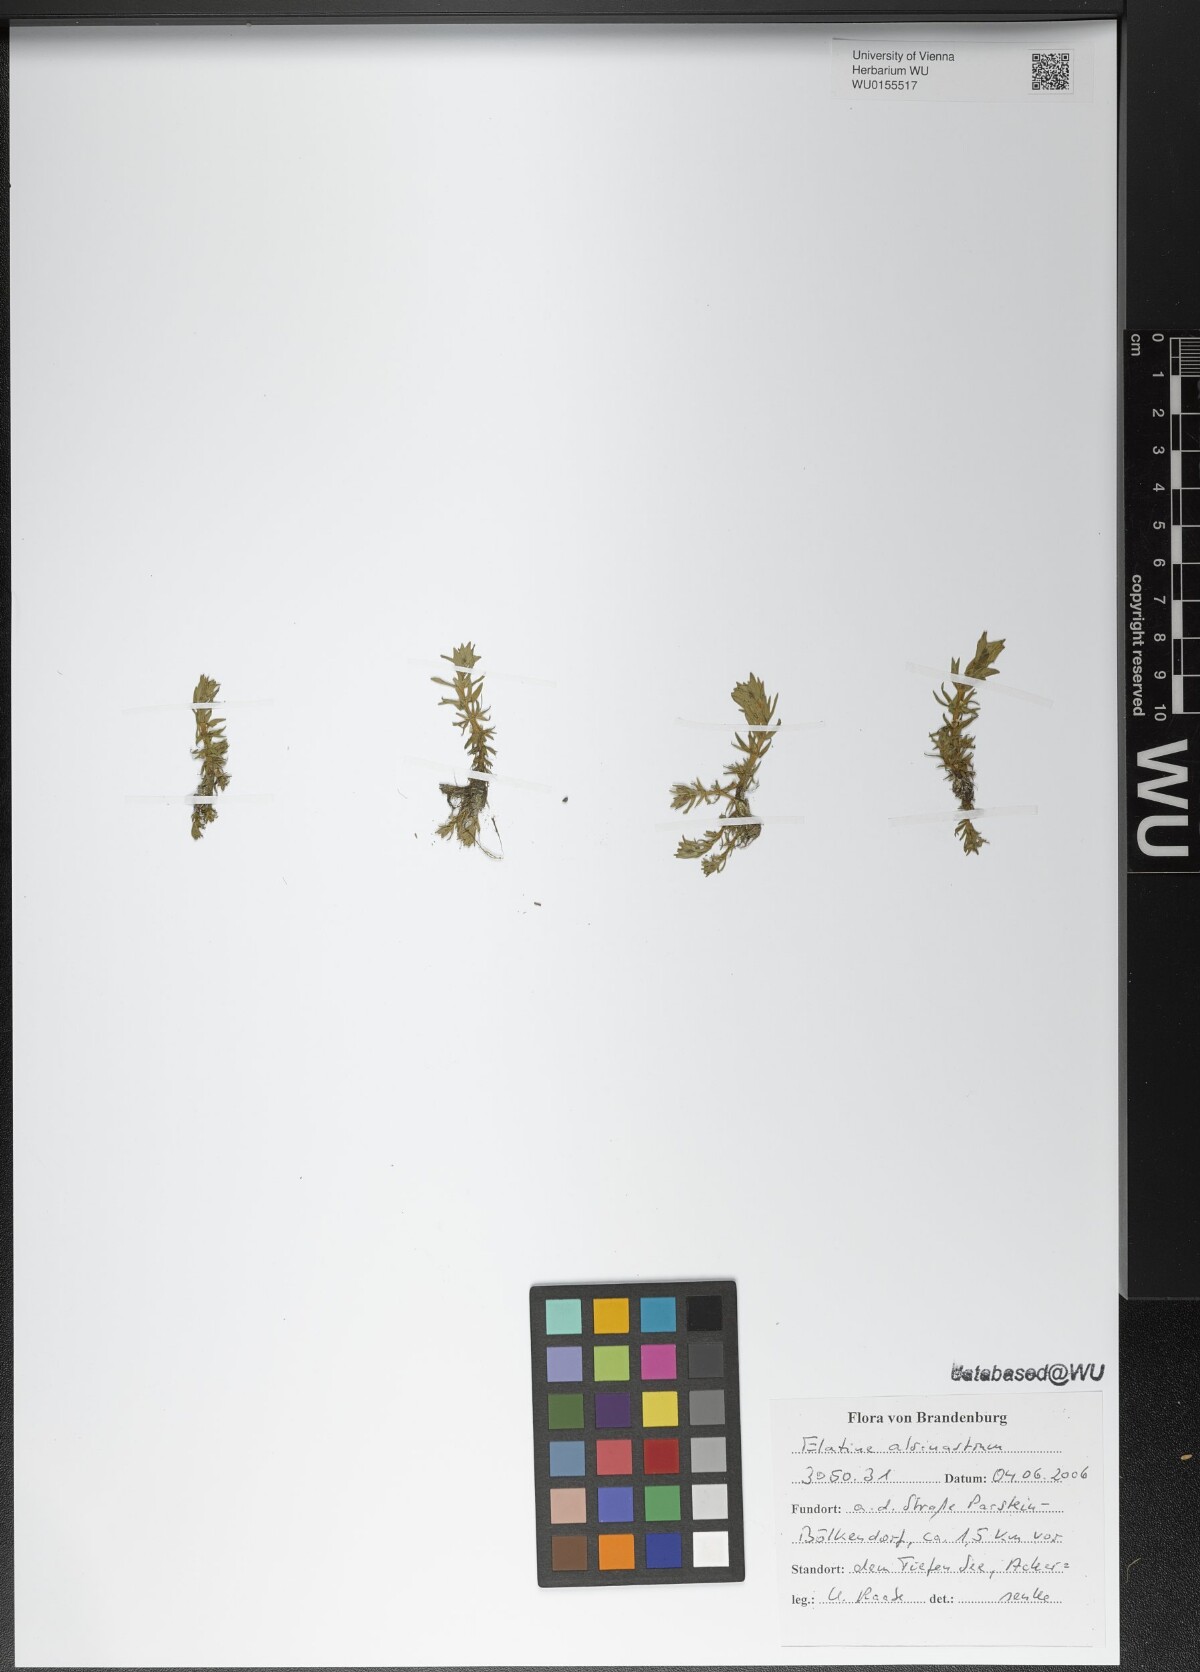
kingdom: Plantae
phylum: Tracheophyta
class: Magnoliopsida
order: Malpighiales
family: Elatinaceae
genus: Elatine
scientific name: Elatine alsinastrum
